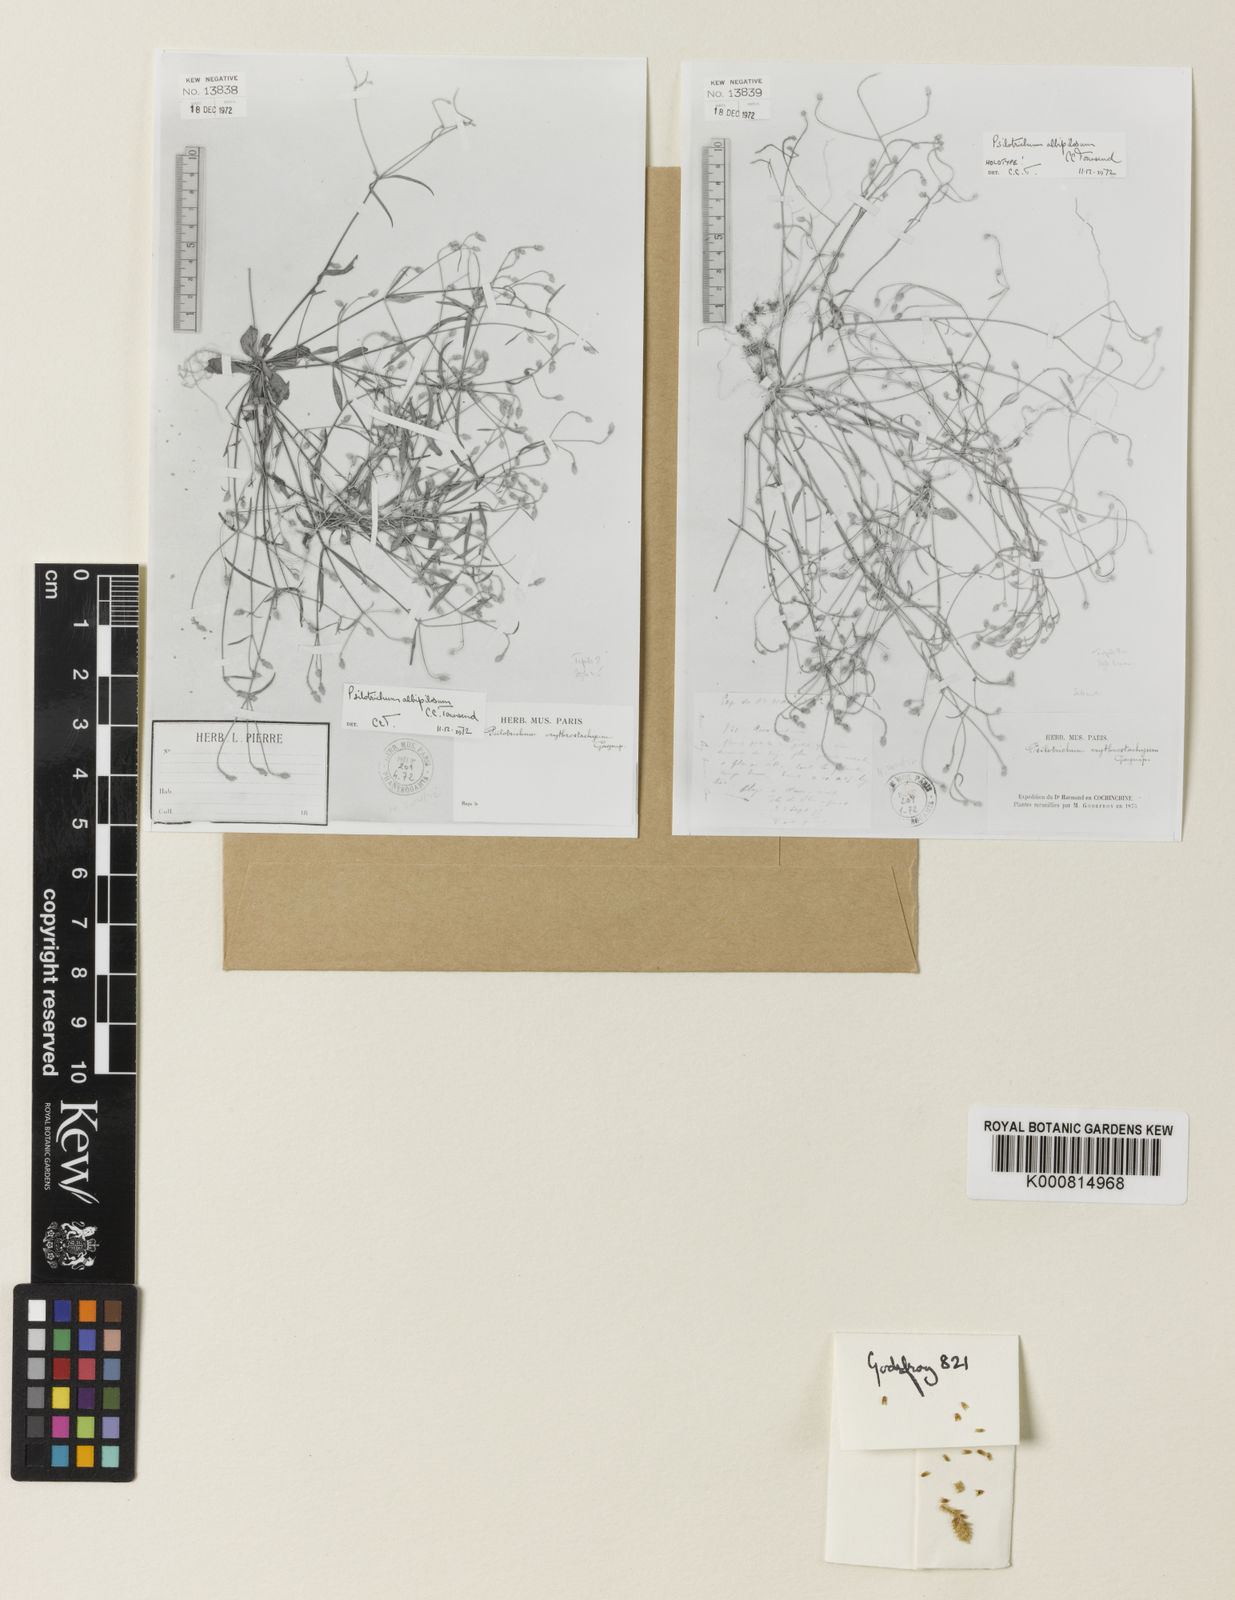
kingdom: Plantae
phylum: Tracheophyta
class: Magnoliopsida
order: Caryophyllales
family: Amaranthaceae
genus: Psilotrichum
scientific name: Psilotrichum ferrugineum
